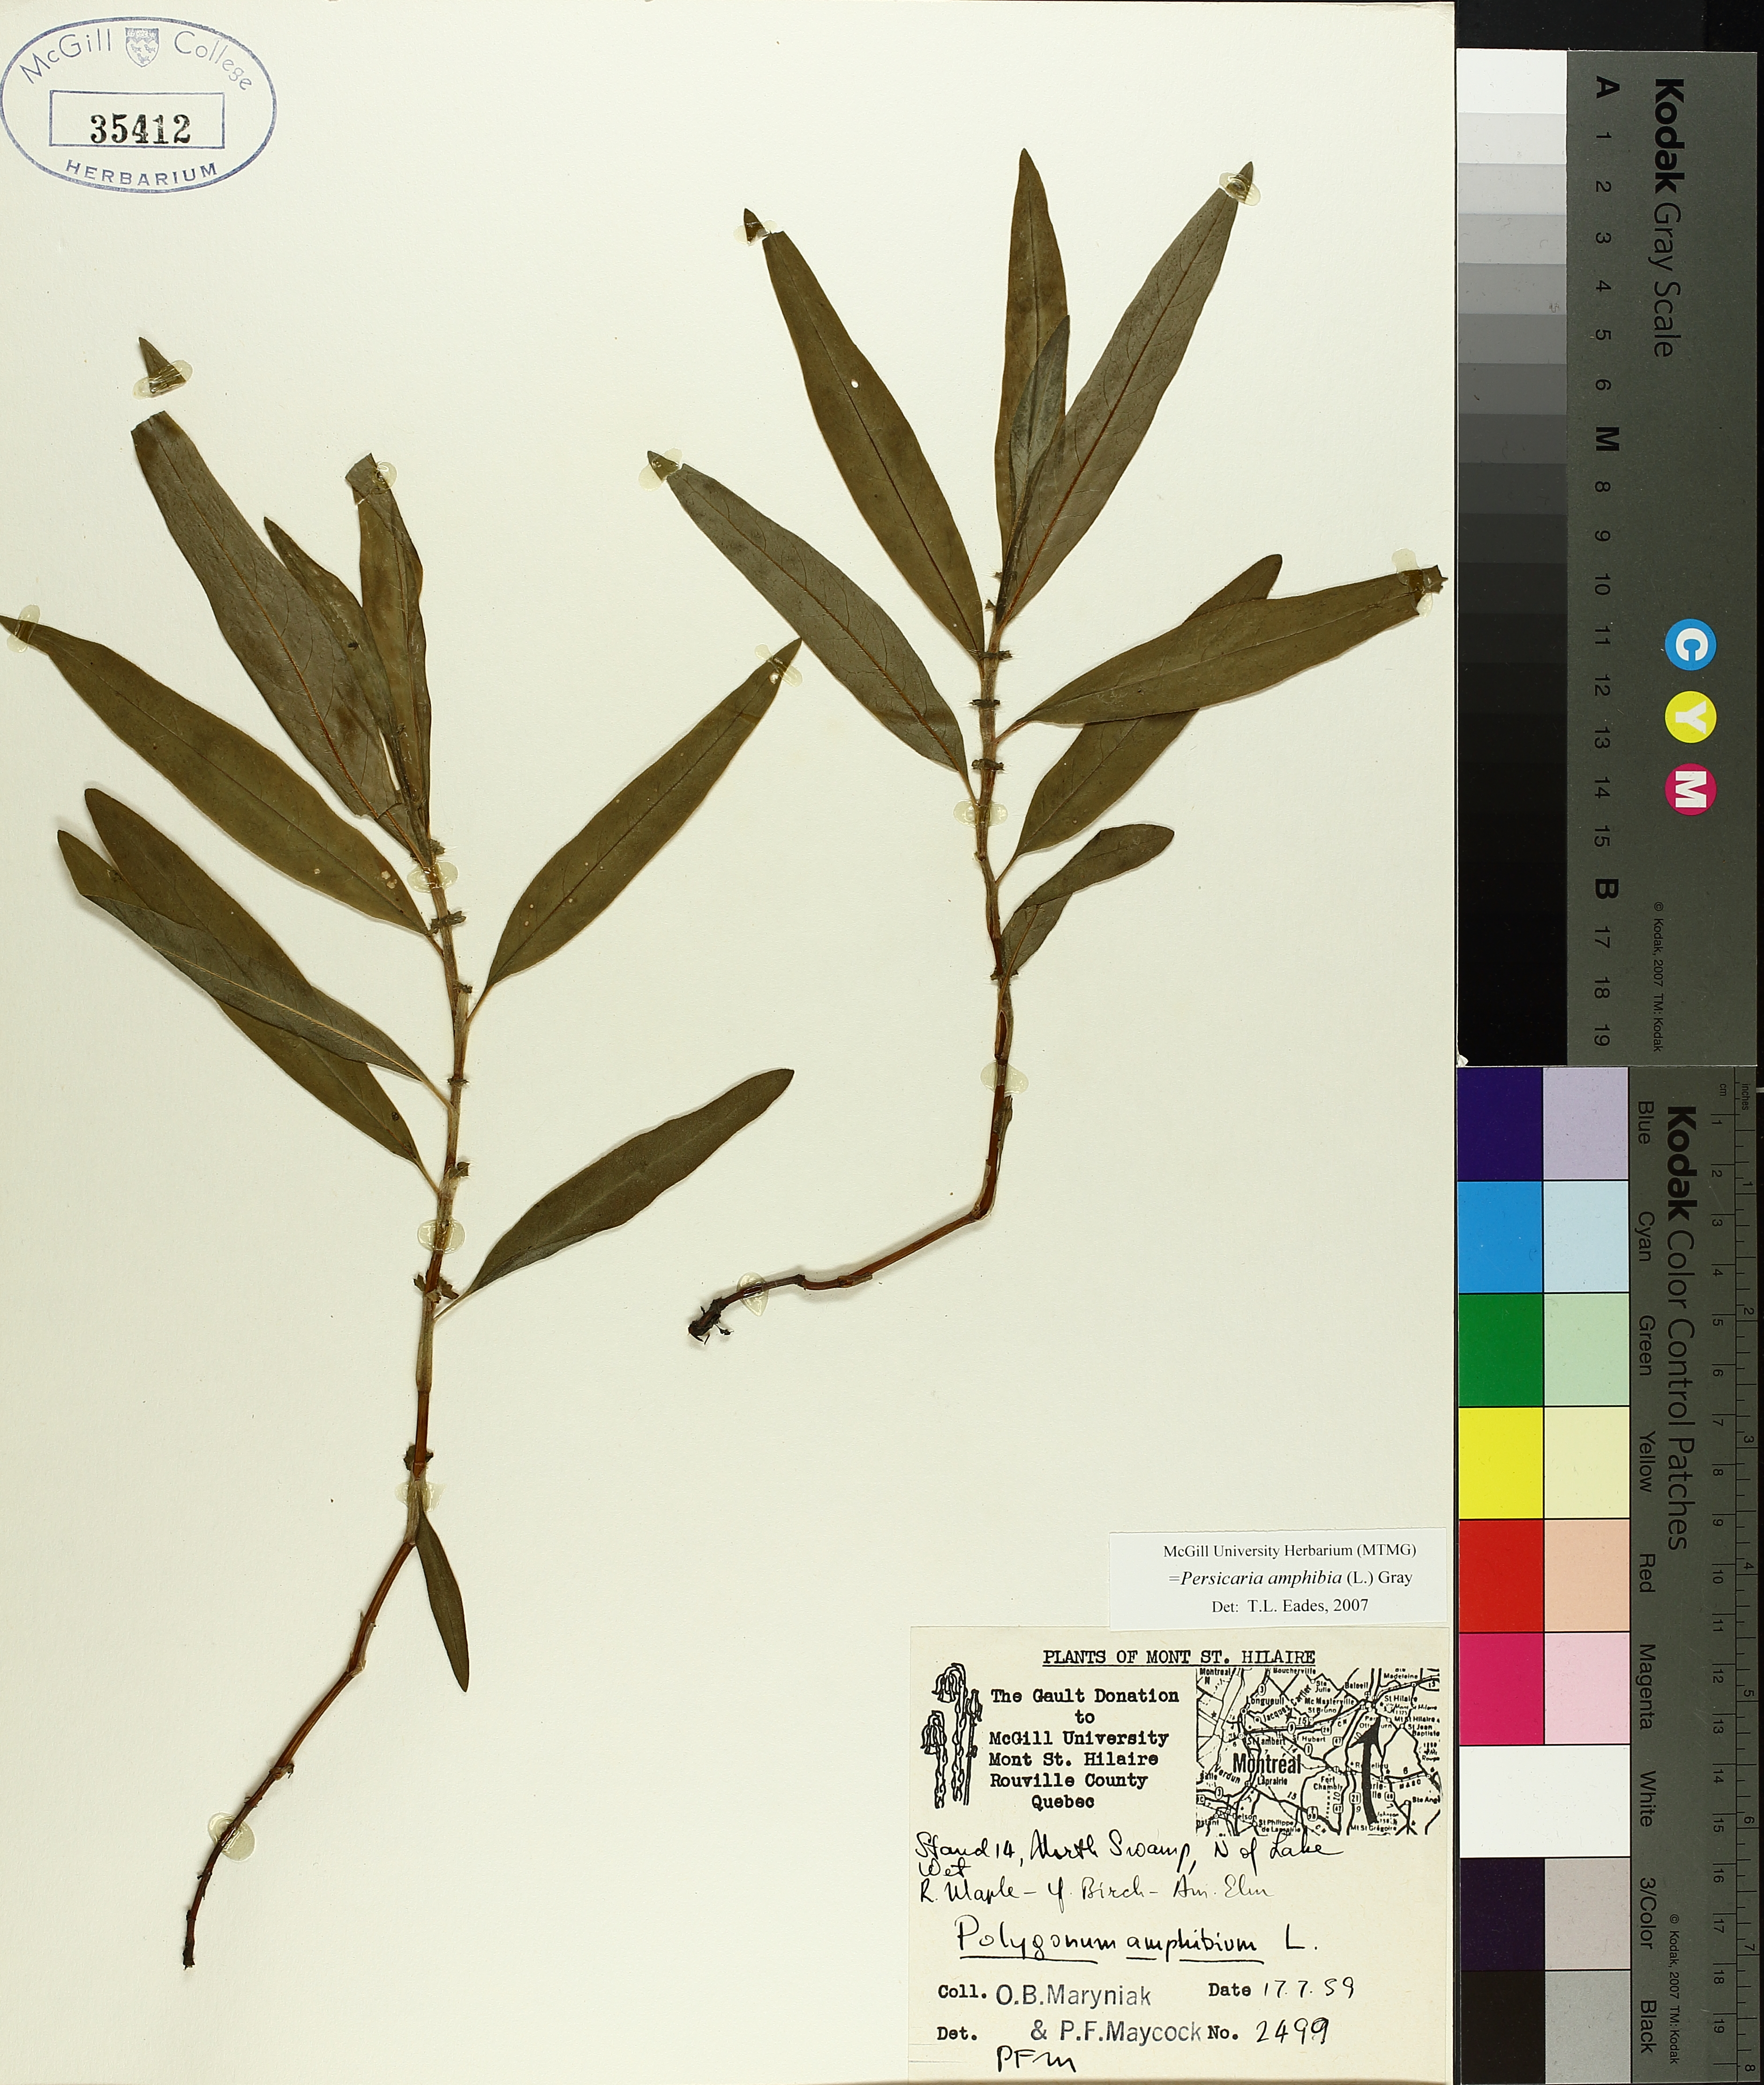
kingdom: Plantae
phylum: Tracheophyta
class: Magnoliopsida
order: Caryophyllales
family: Polygonaceae
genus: Persicaria
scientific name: Persicaria amphibia
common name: Amphibious bistort
